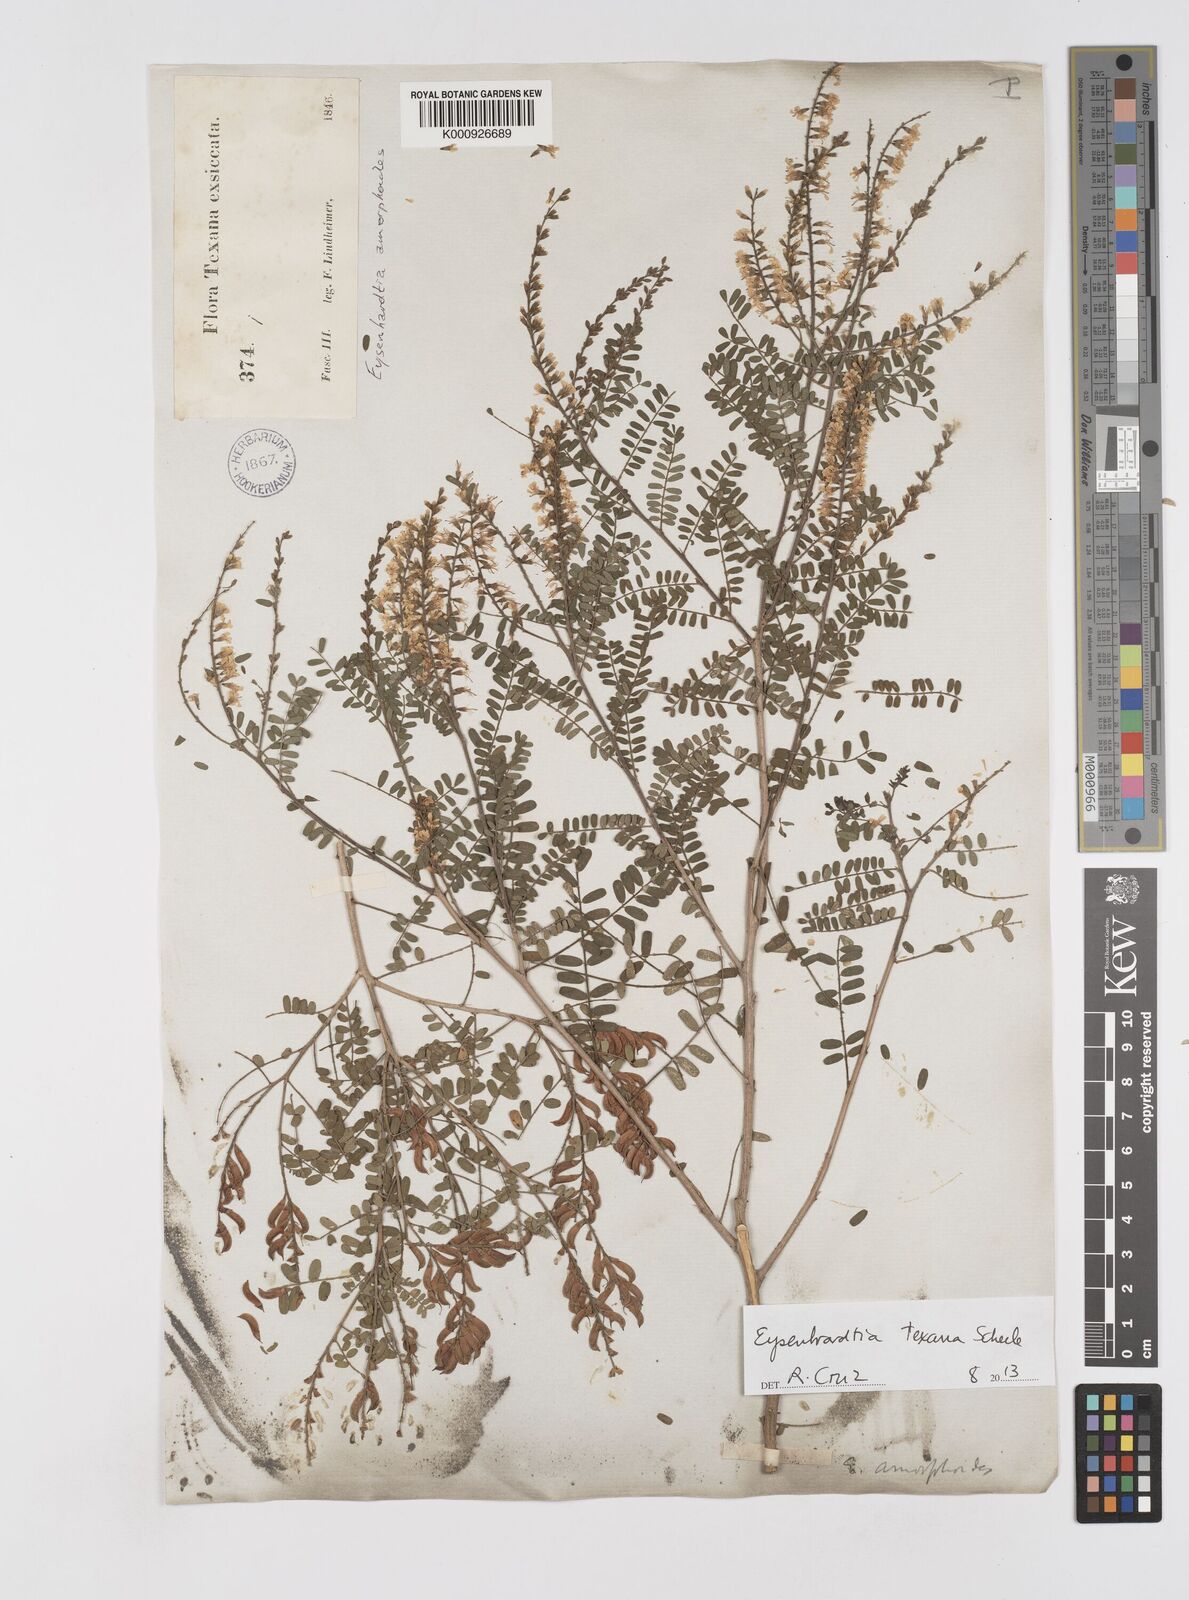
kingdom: Plantae
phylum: Tracheophyta
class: Magnoliopsida
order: Fabales
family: Fabaceae
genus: Eysenhardtia
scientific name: Eysenhardtia texana
